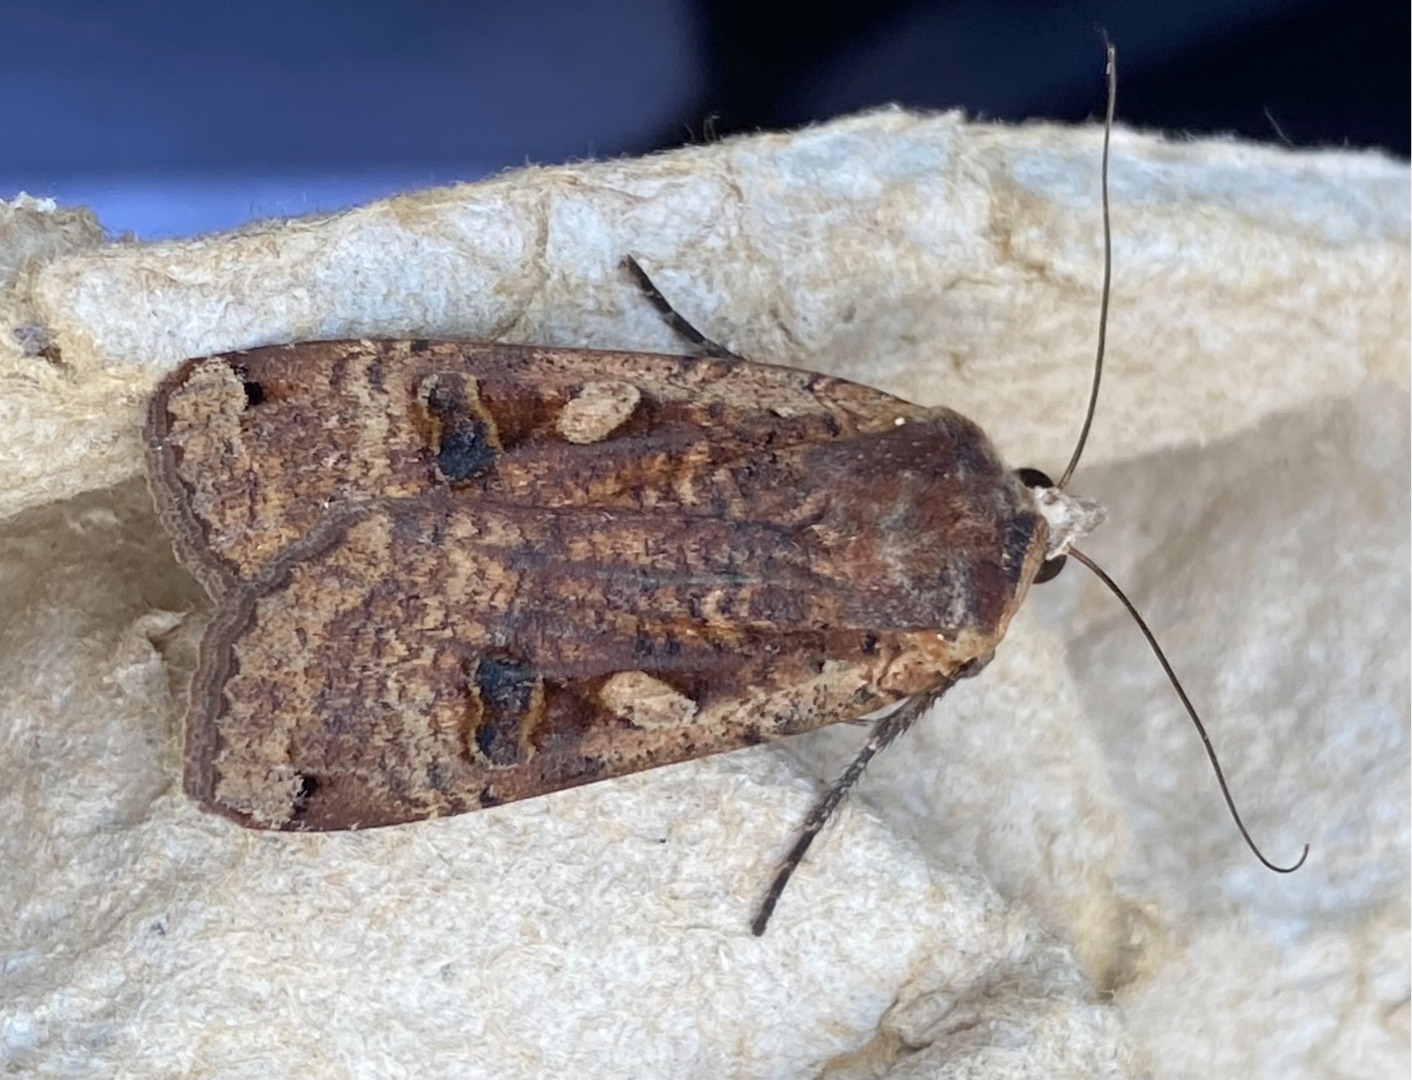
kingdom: Animalia
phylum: Arthropoda
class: Insecta
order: Lepidoptera
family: Noctuidae
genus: Noctua
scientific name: Noctua pronuba
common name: Stor smutugle
